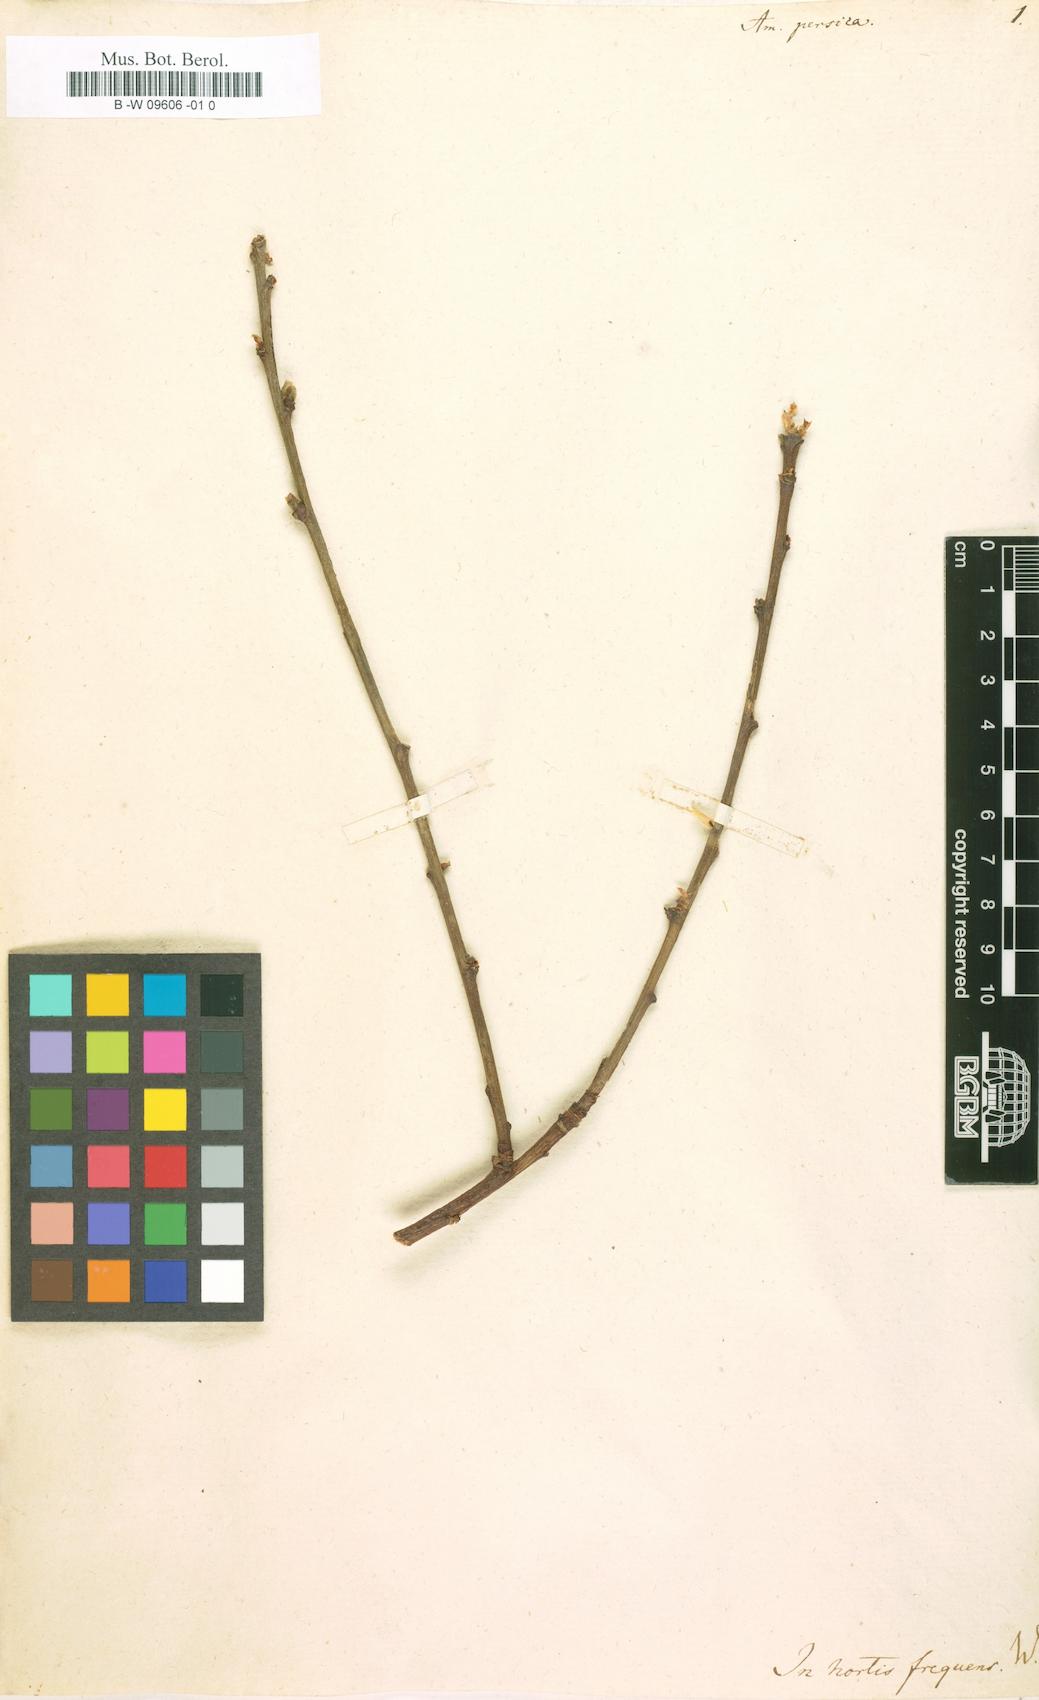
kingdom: Plantae
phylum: Tracheophyta
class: Magnoliopsida
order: Rosales
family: Rosaceae
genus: Prunus
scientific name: Prunus persica
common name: Peach
